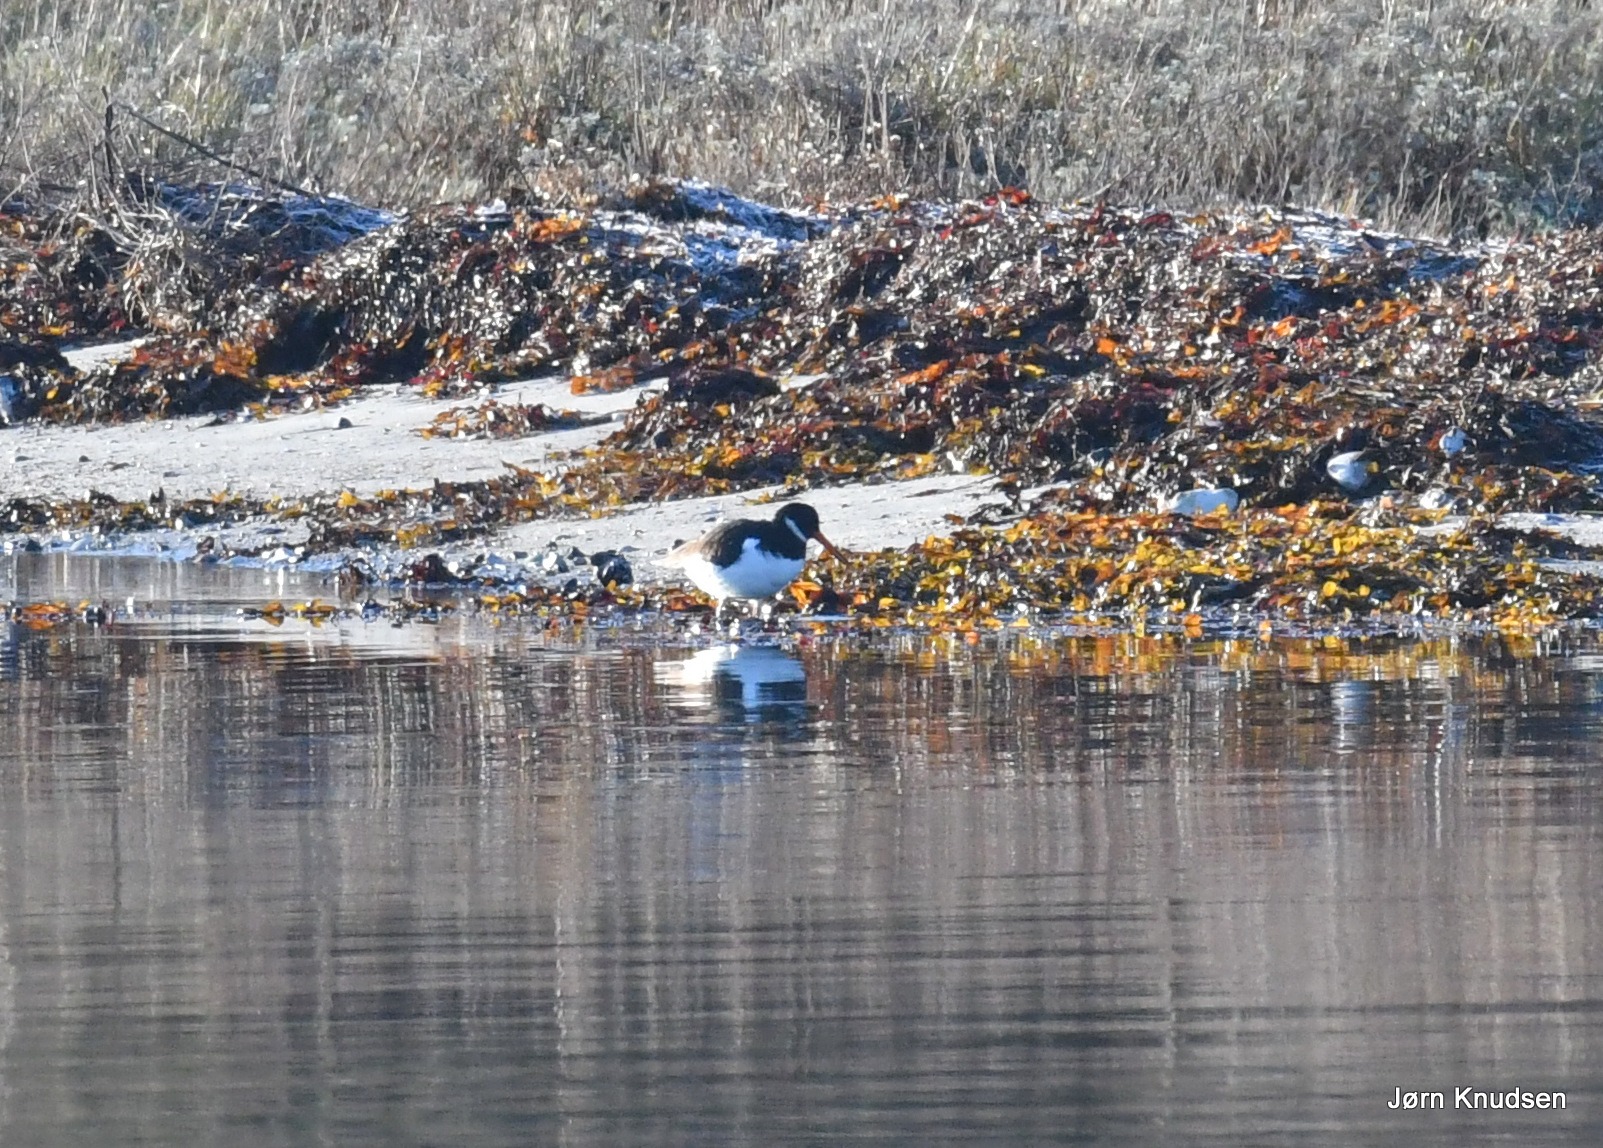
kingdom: Animalia
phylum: Chordata
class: Aves
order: Charadriiformes
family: Haematopodidae
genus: Haematopus
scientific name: Haematopus ostralegus
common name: Strandskade
